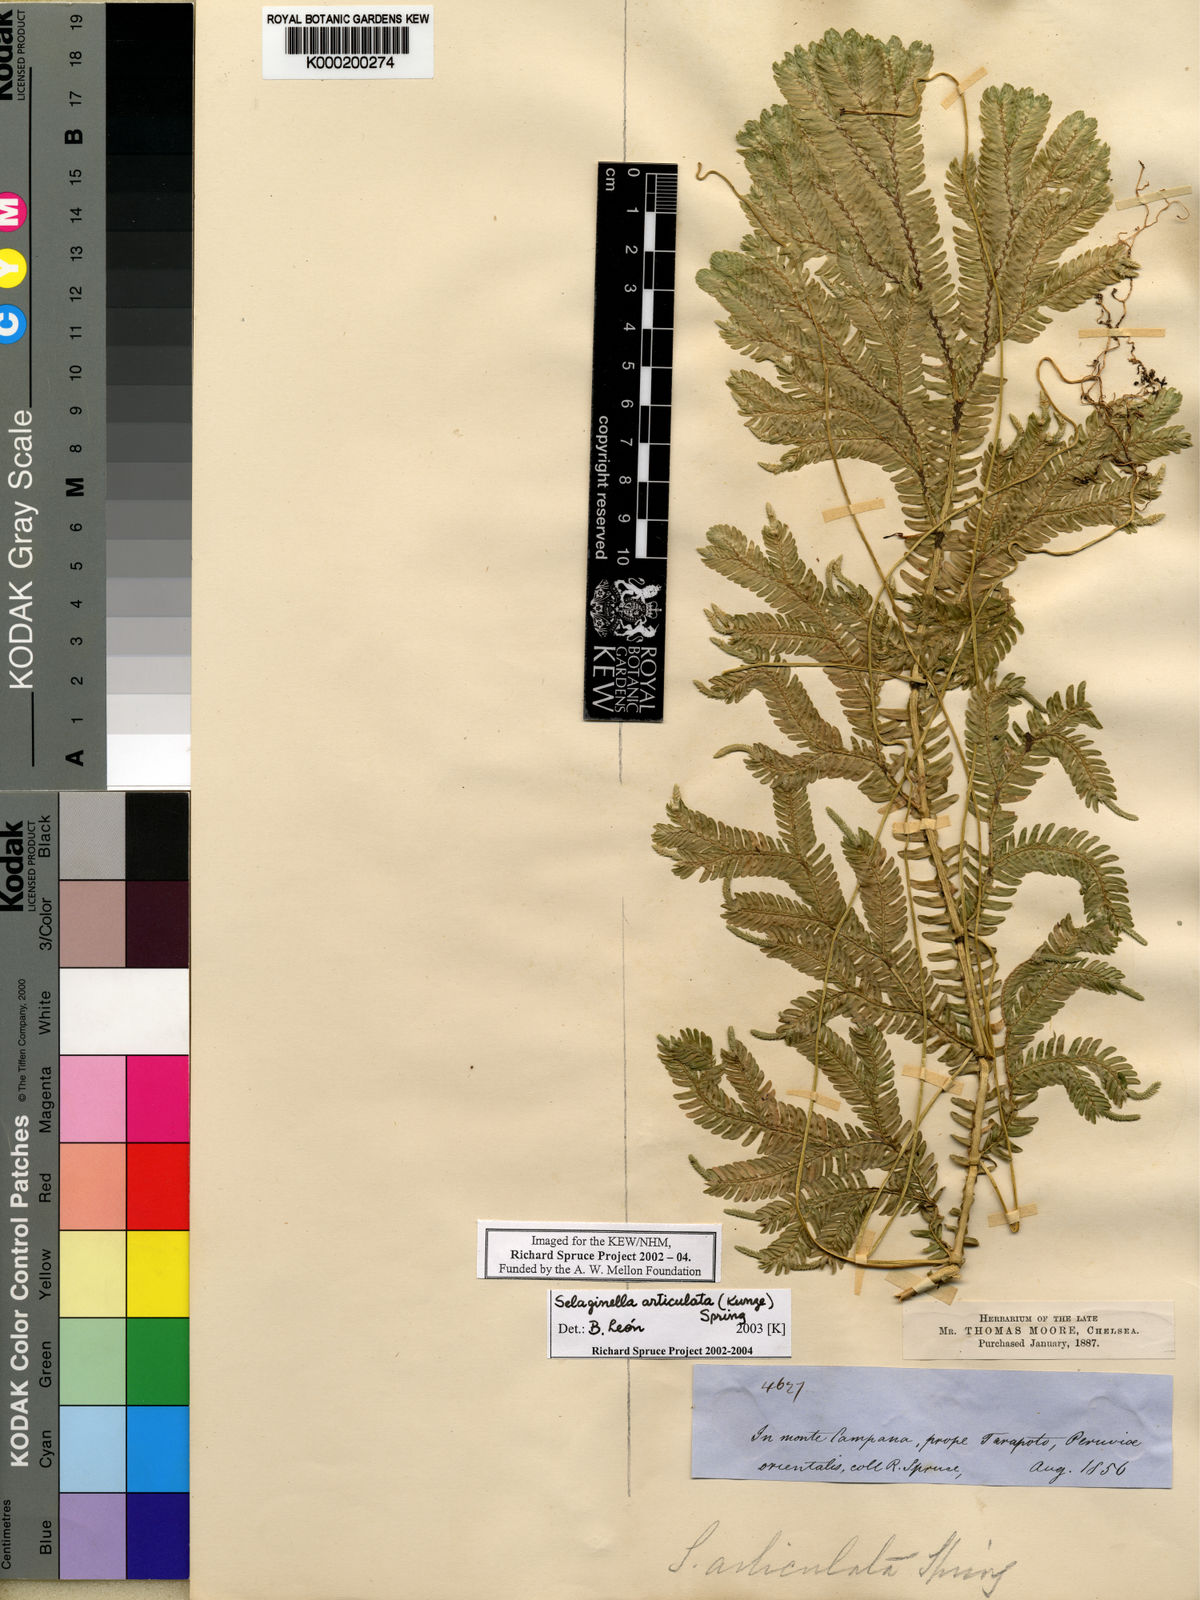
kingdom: Plantae
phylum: Tracheophyta
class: Lycopodiopsida
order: Selaginellales
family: Selaginellaceae
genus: Selaginella
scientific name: Selaginella articulata
